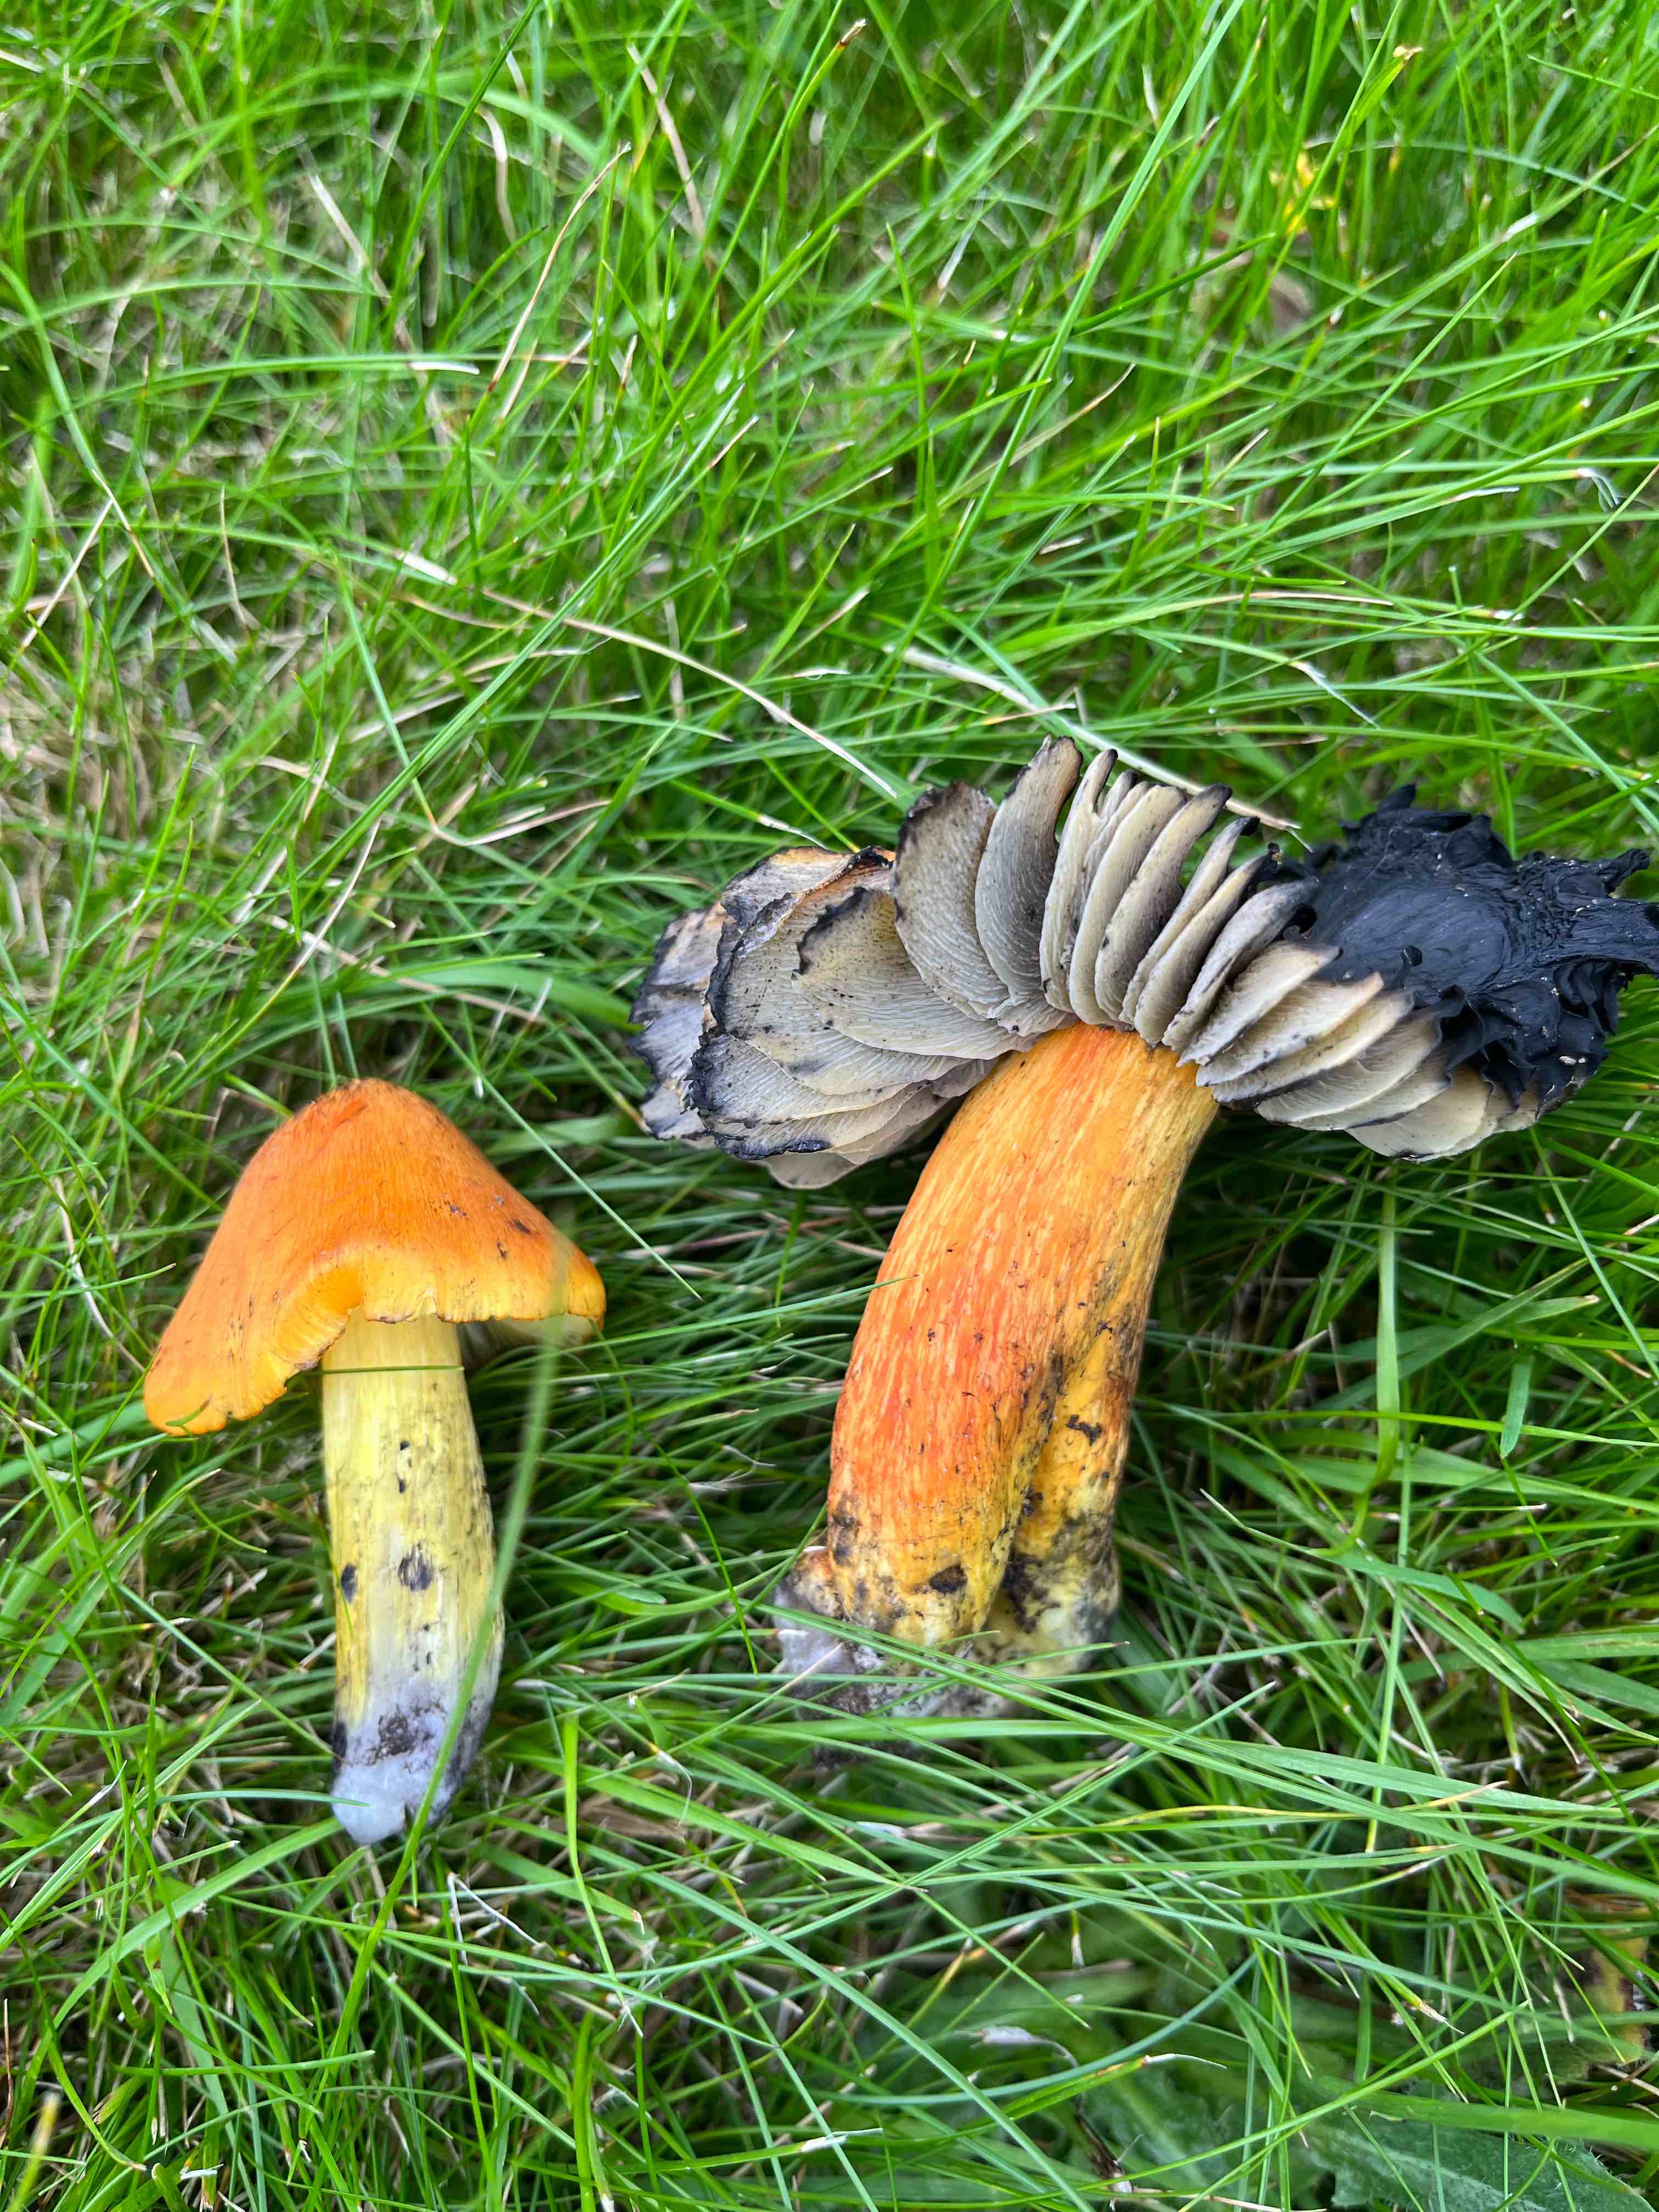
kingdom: Fungi
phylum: Basidiomycota
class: Agaricomycetes
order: Agaricales
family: Hygrophoraceae
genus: Hygrocybe
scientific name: Hygrocybe conica
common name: kegle-vokshat
